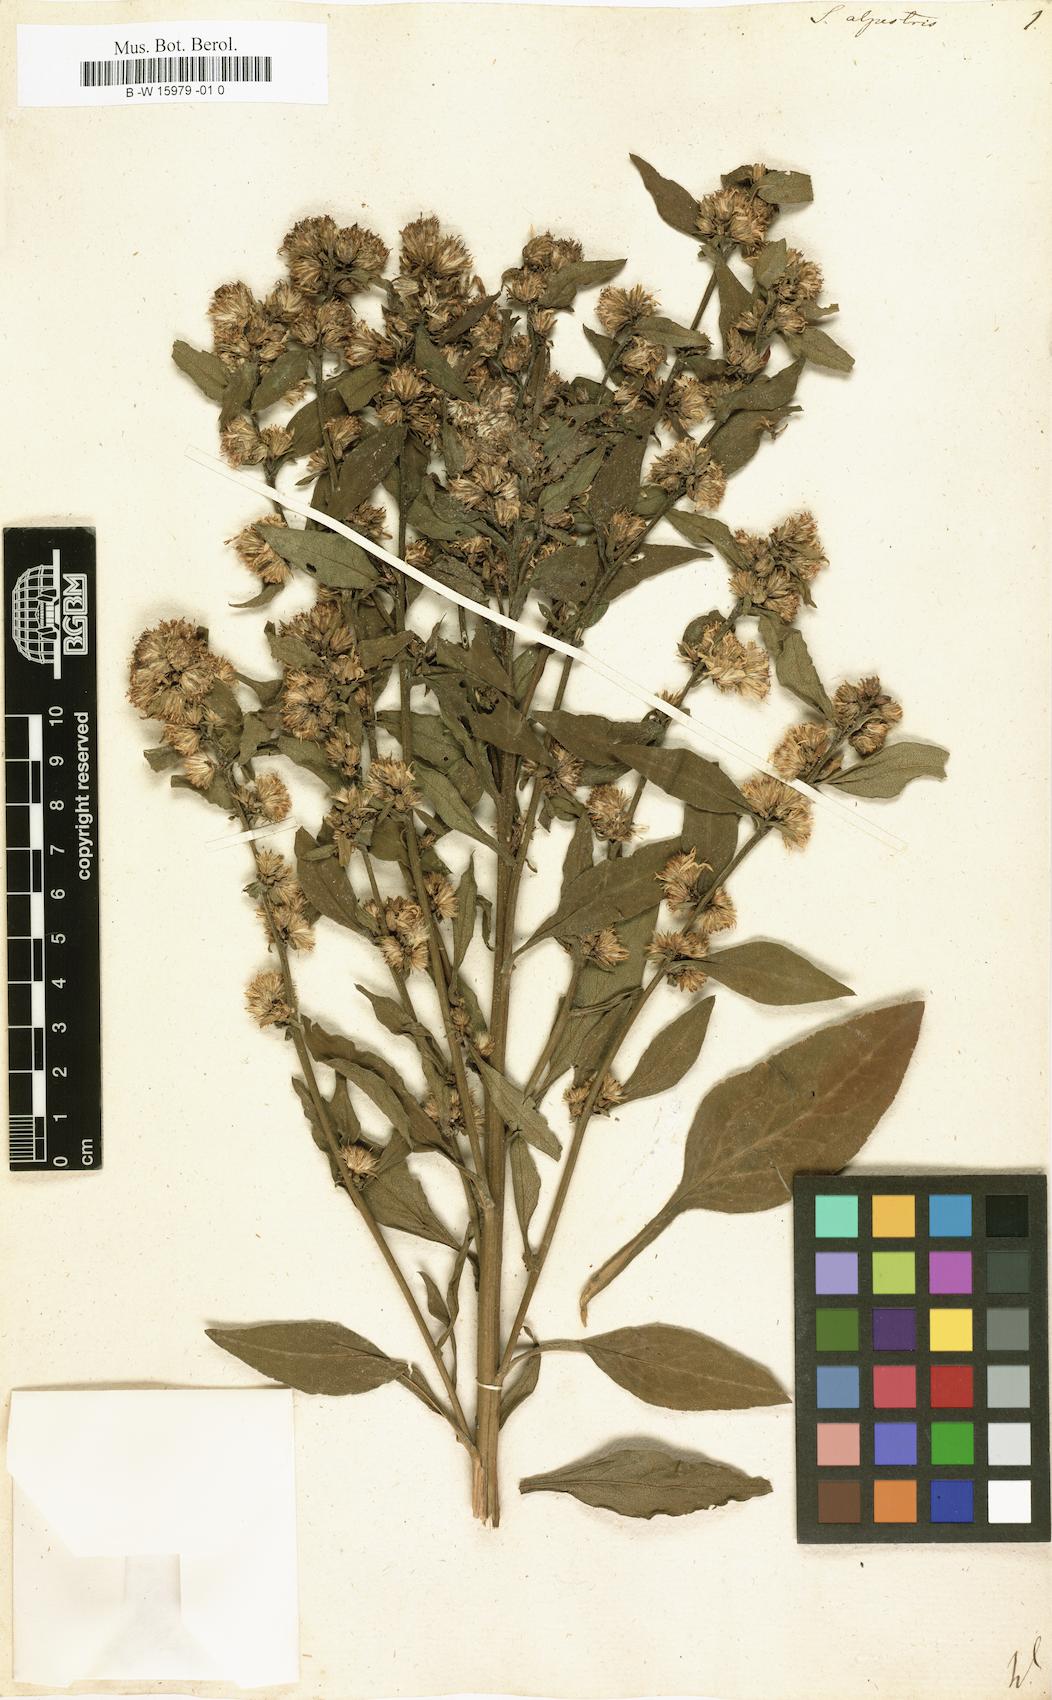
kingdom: Plantae
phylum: Tracheophyta
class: Magnoliopsida
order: Asterales
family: Asteraceae
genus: Solidago
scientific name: Solidago
